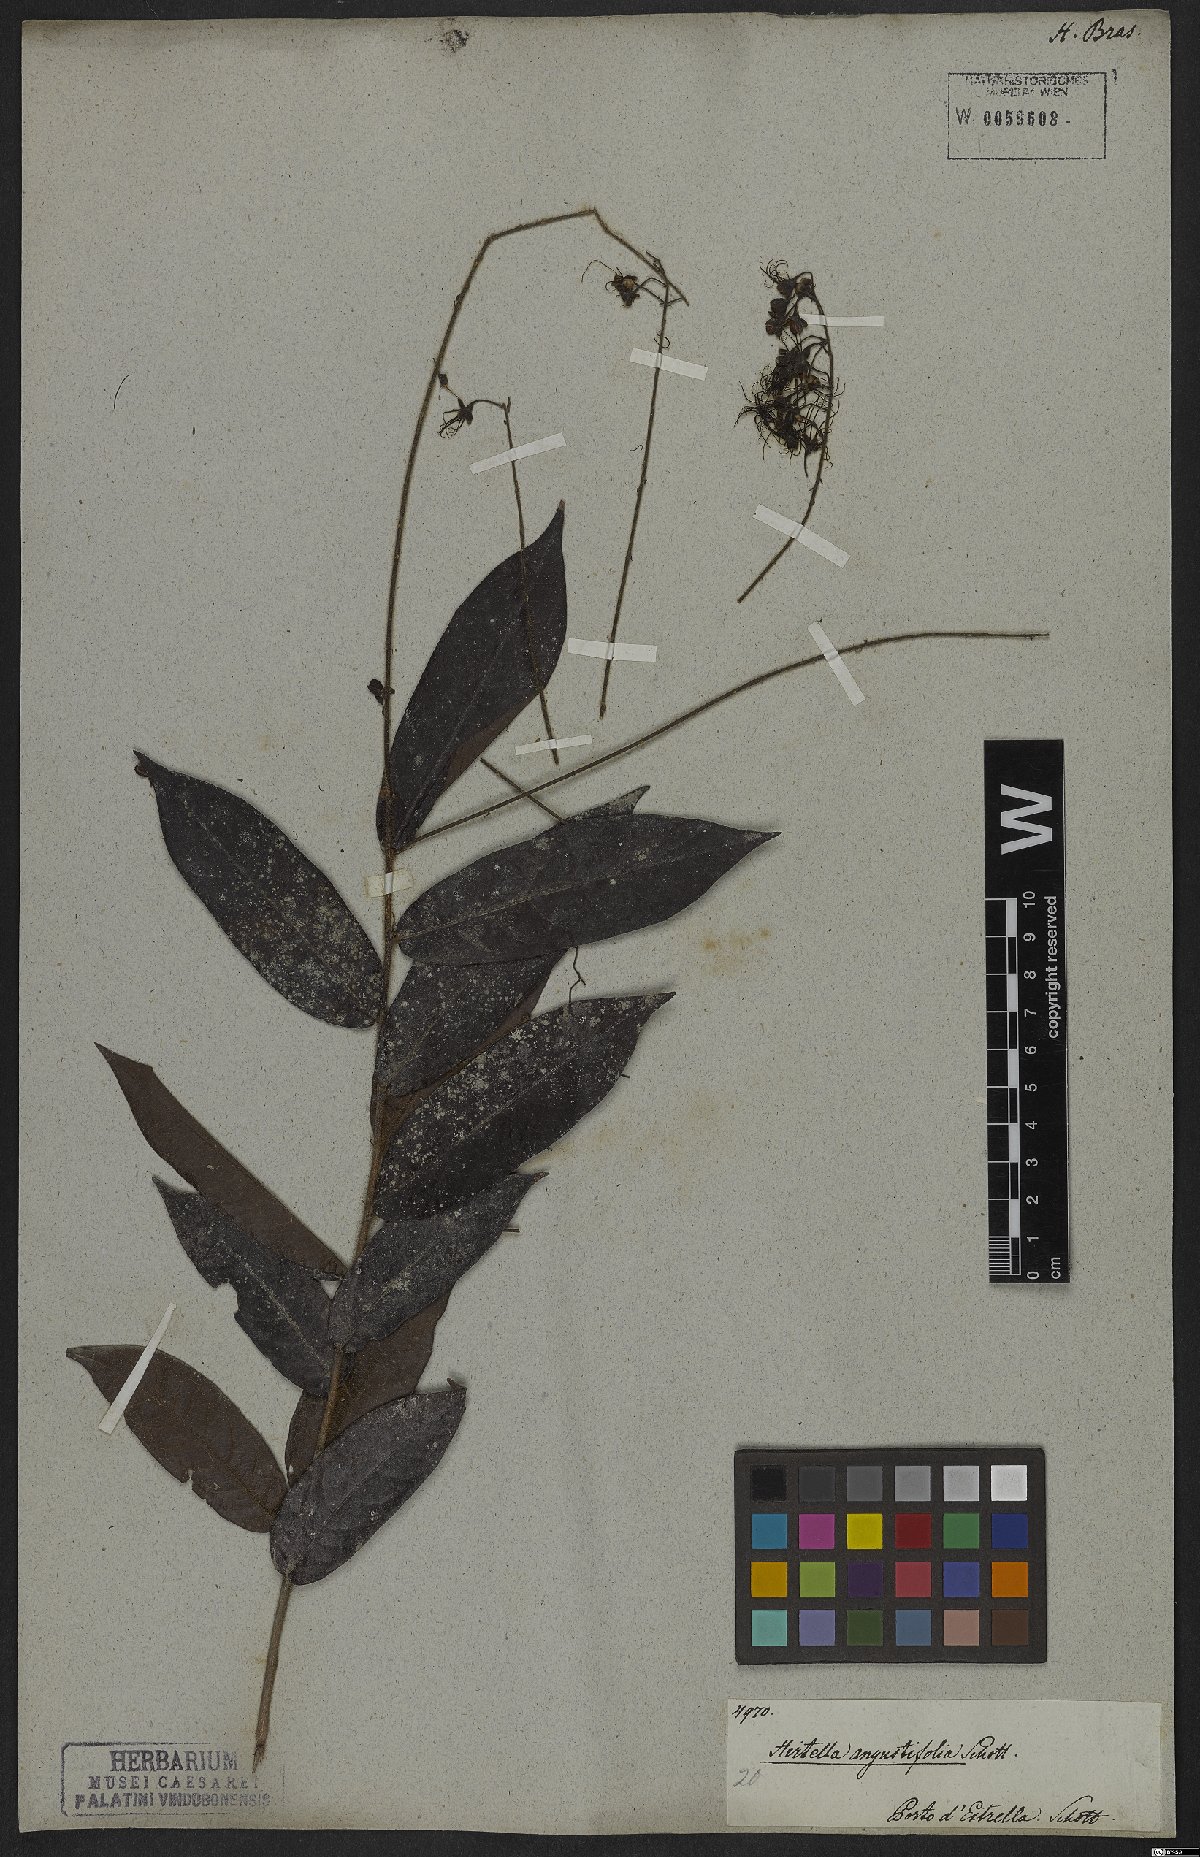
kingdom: Plantae
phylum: Tracheophyta
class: Magnoliopsida
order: Malpighiales
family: Chrysobalanaceae
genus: Hirtella
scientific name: Hirtella angustifolia
